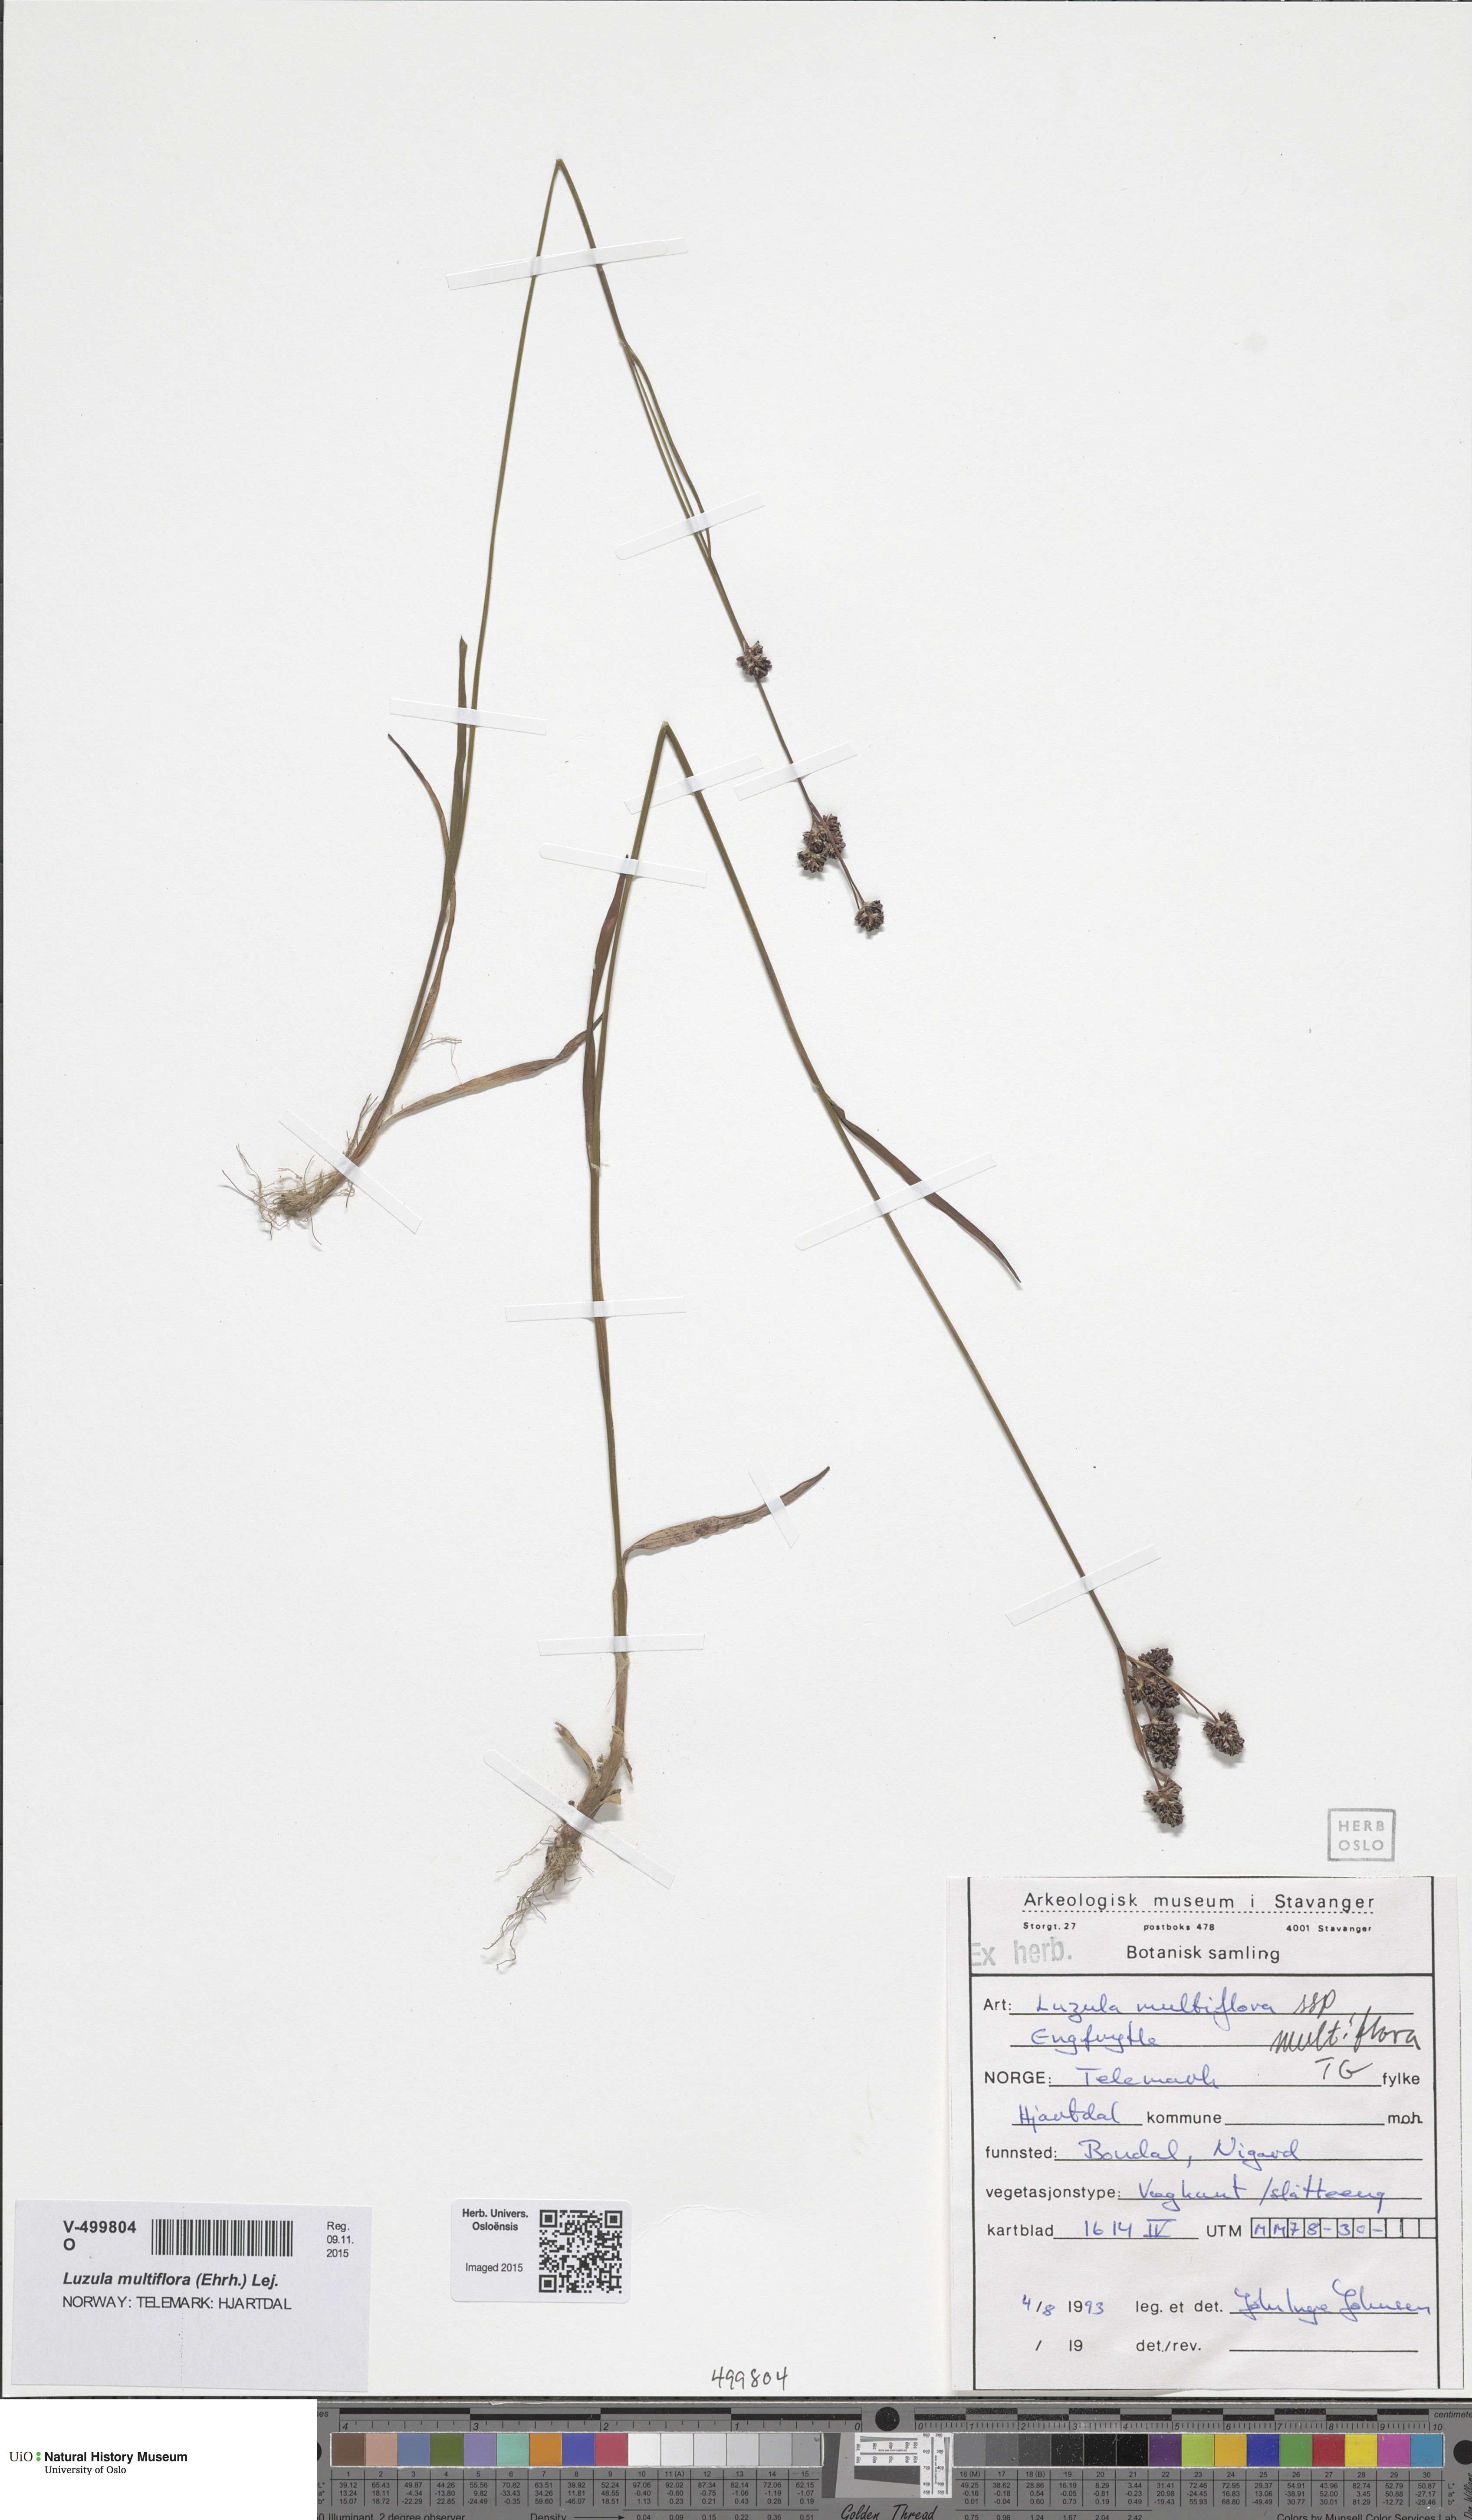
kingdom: Plantae
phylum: Tracheophyta
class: Liliopsida
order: Poales
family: Juncaceae
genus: Luzula
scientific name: Luzula multiflora
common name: Heath wood-rush
